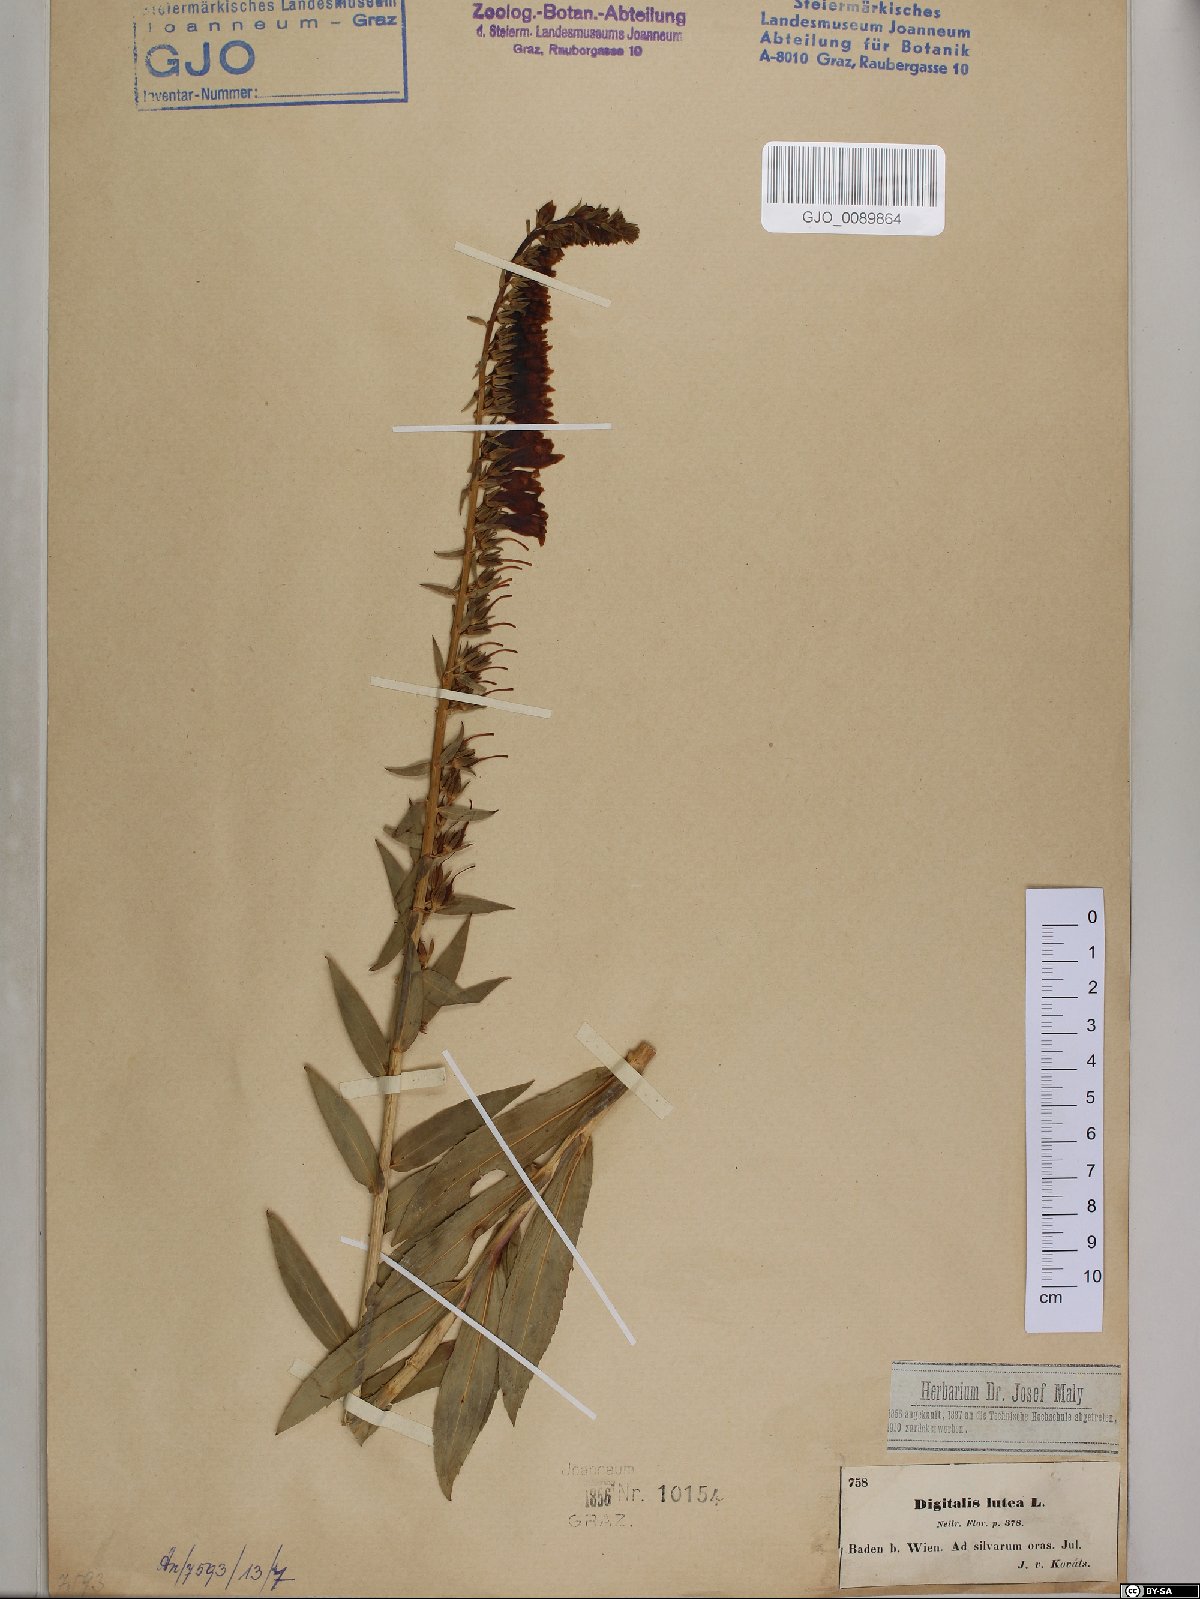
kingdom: Plantae
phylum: Tracheophyta
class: Magnoliopsida
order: Lamiales
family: Plantaginaceae
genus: Digitalis
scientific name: Digitalis lutea
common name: Straw foxglove
